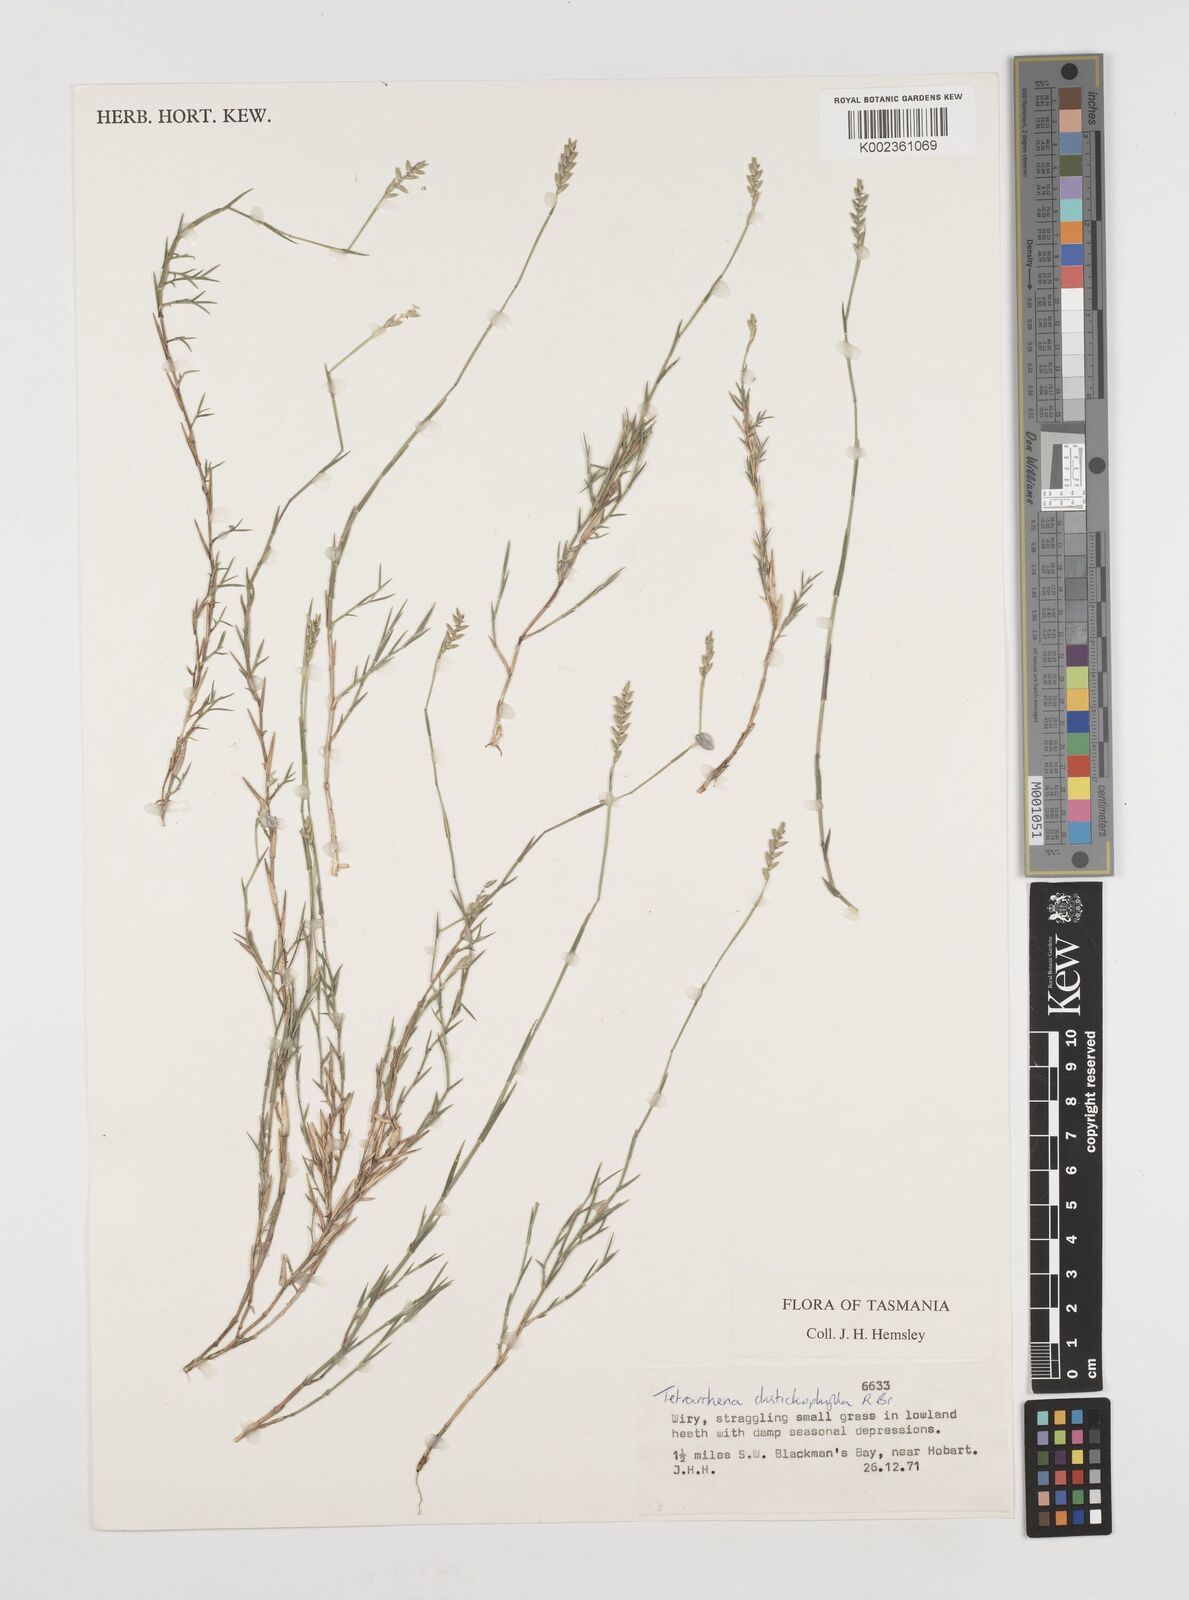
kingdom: Plantae
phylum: Tracheophyta
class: Liliopsida
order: Poales
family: Poaceae
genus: Tetrarrhena
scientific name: Tetrarrhena distichophylla
